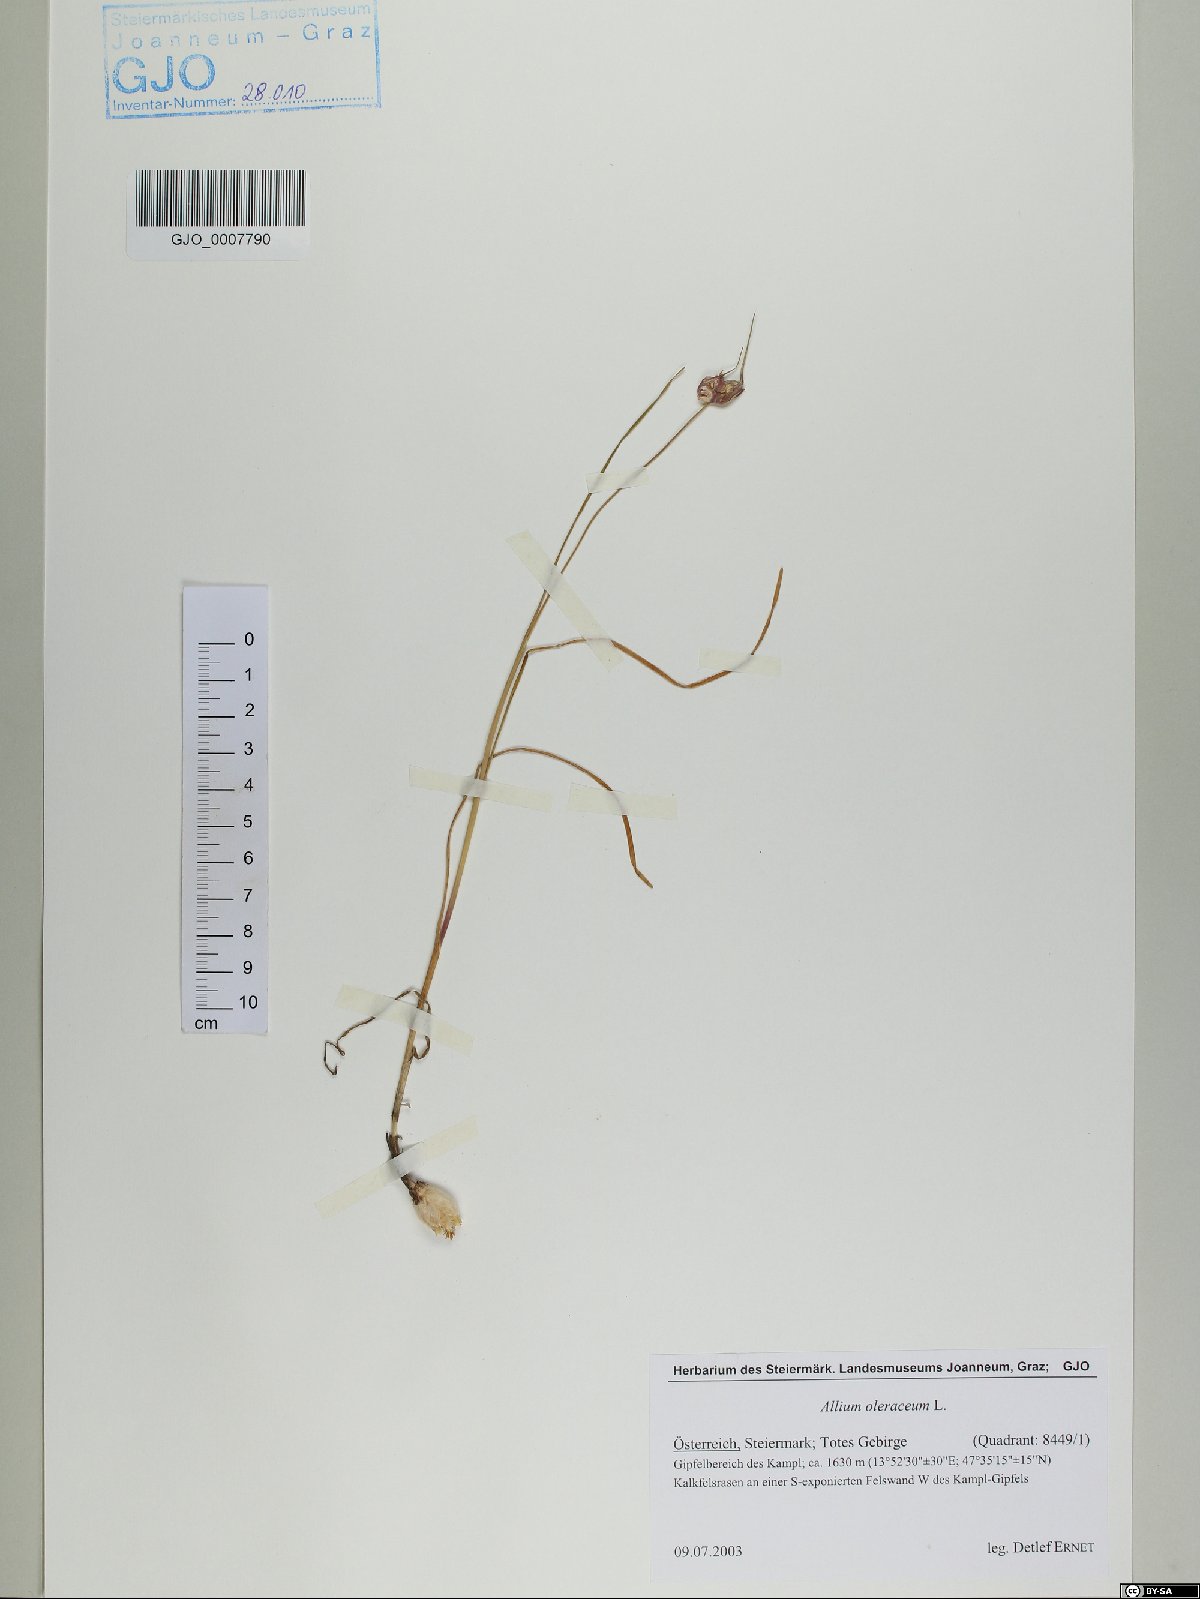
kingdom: Plantae
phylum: Tracheophyta
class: Liliopsida
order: Asparagales
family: Amaryllidaceae
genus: Allium
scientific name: Allium oleraceum
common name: Field garlic
